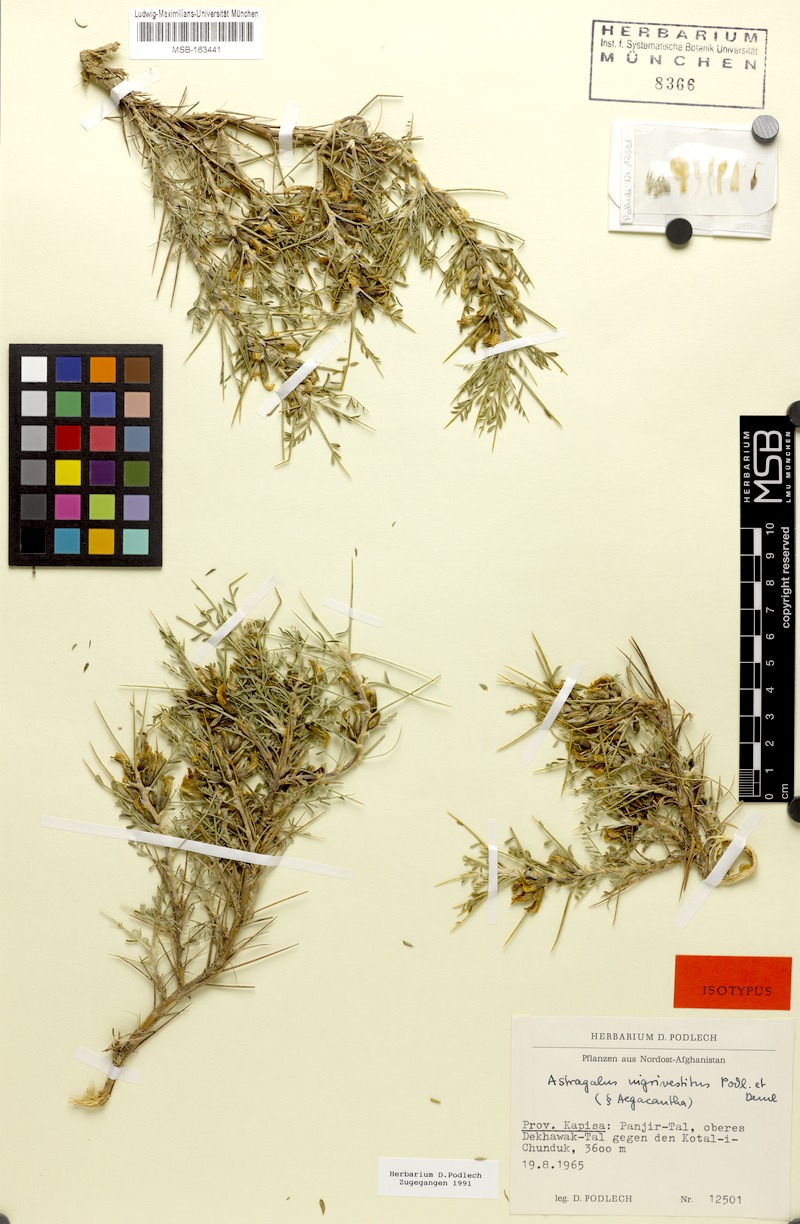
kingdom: Plantae
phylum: Tracheophyta
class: Magnoliopsida
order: Fabales
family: Fabaceae
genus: Astragalus
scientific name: Astragalus nigrivestitus
